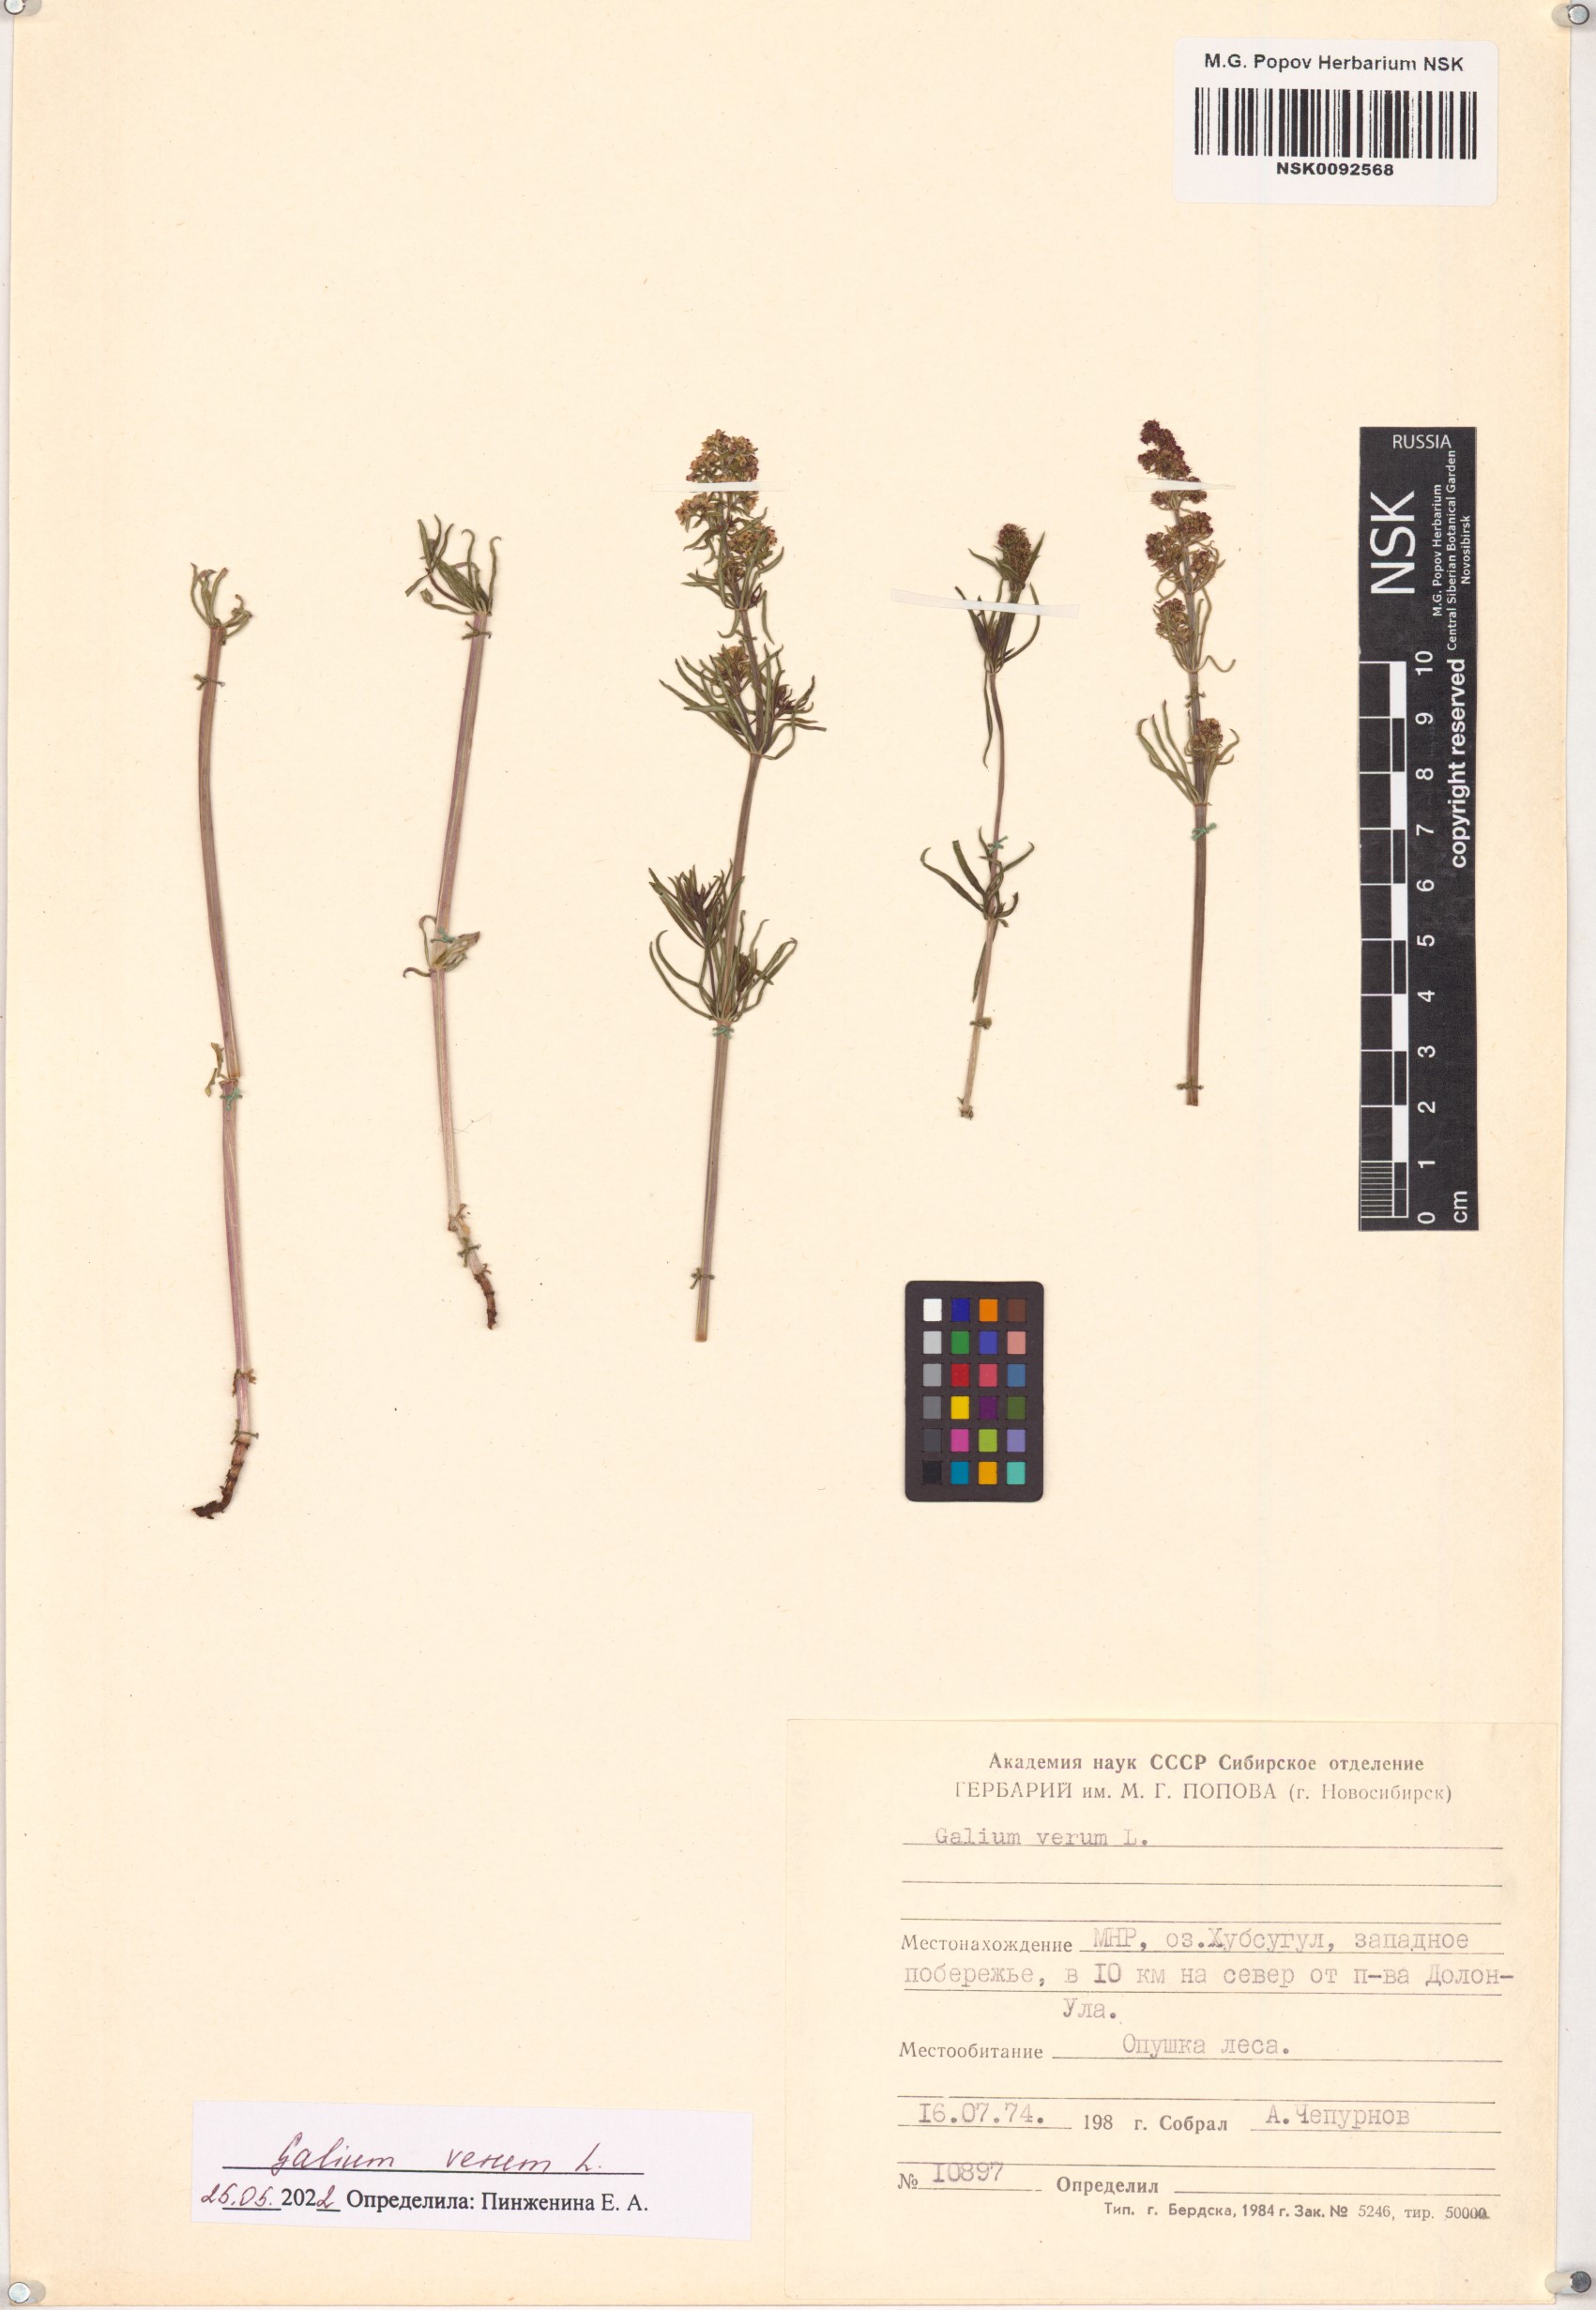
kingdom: Plantae
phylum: Tracheophyta
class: Magnoliopsida
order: Gentianales
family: Rubiaceae
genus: Galium
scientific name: Galium verum
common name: Lady's bedstraw
